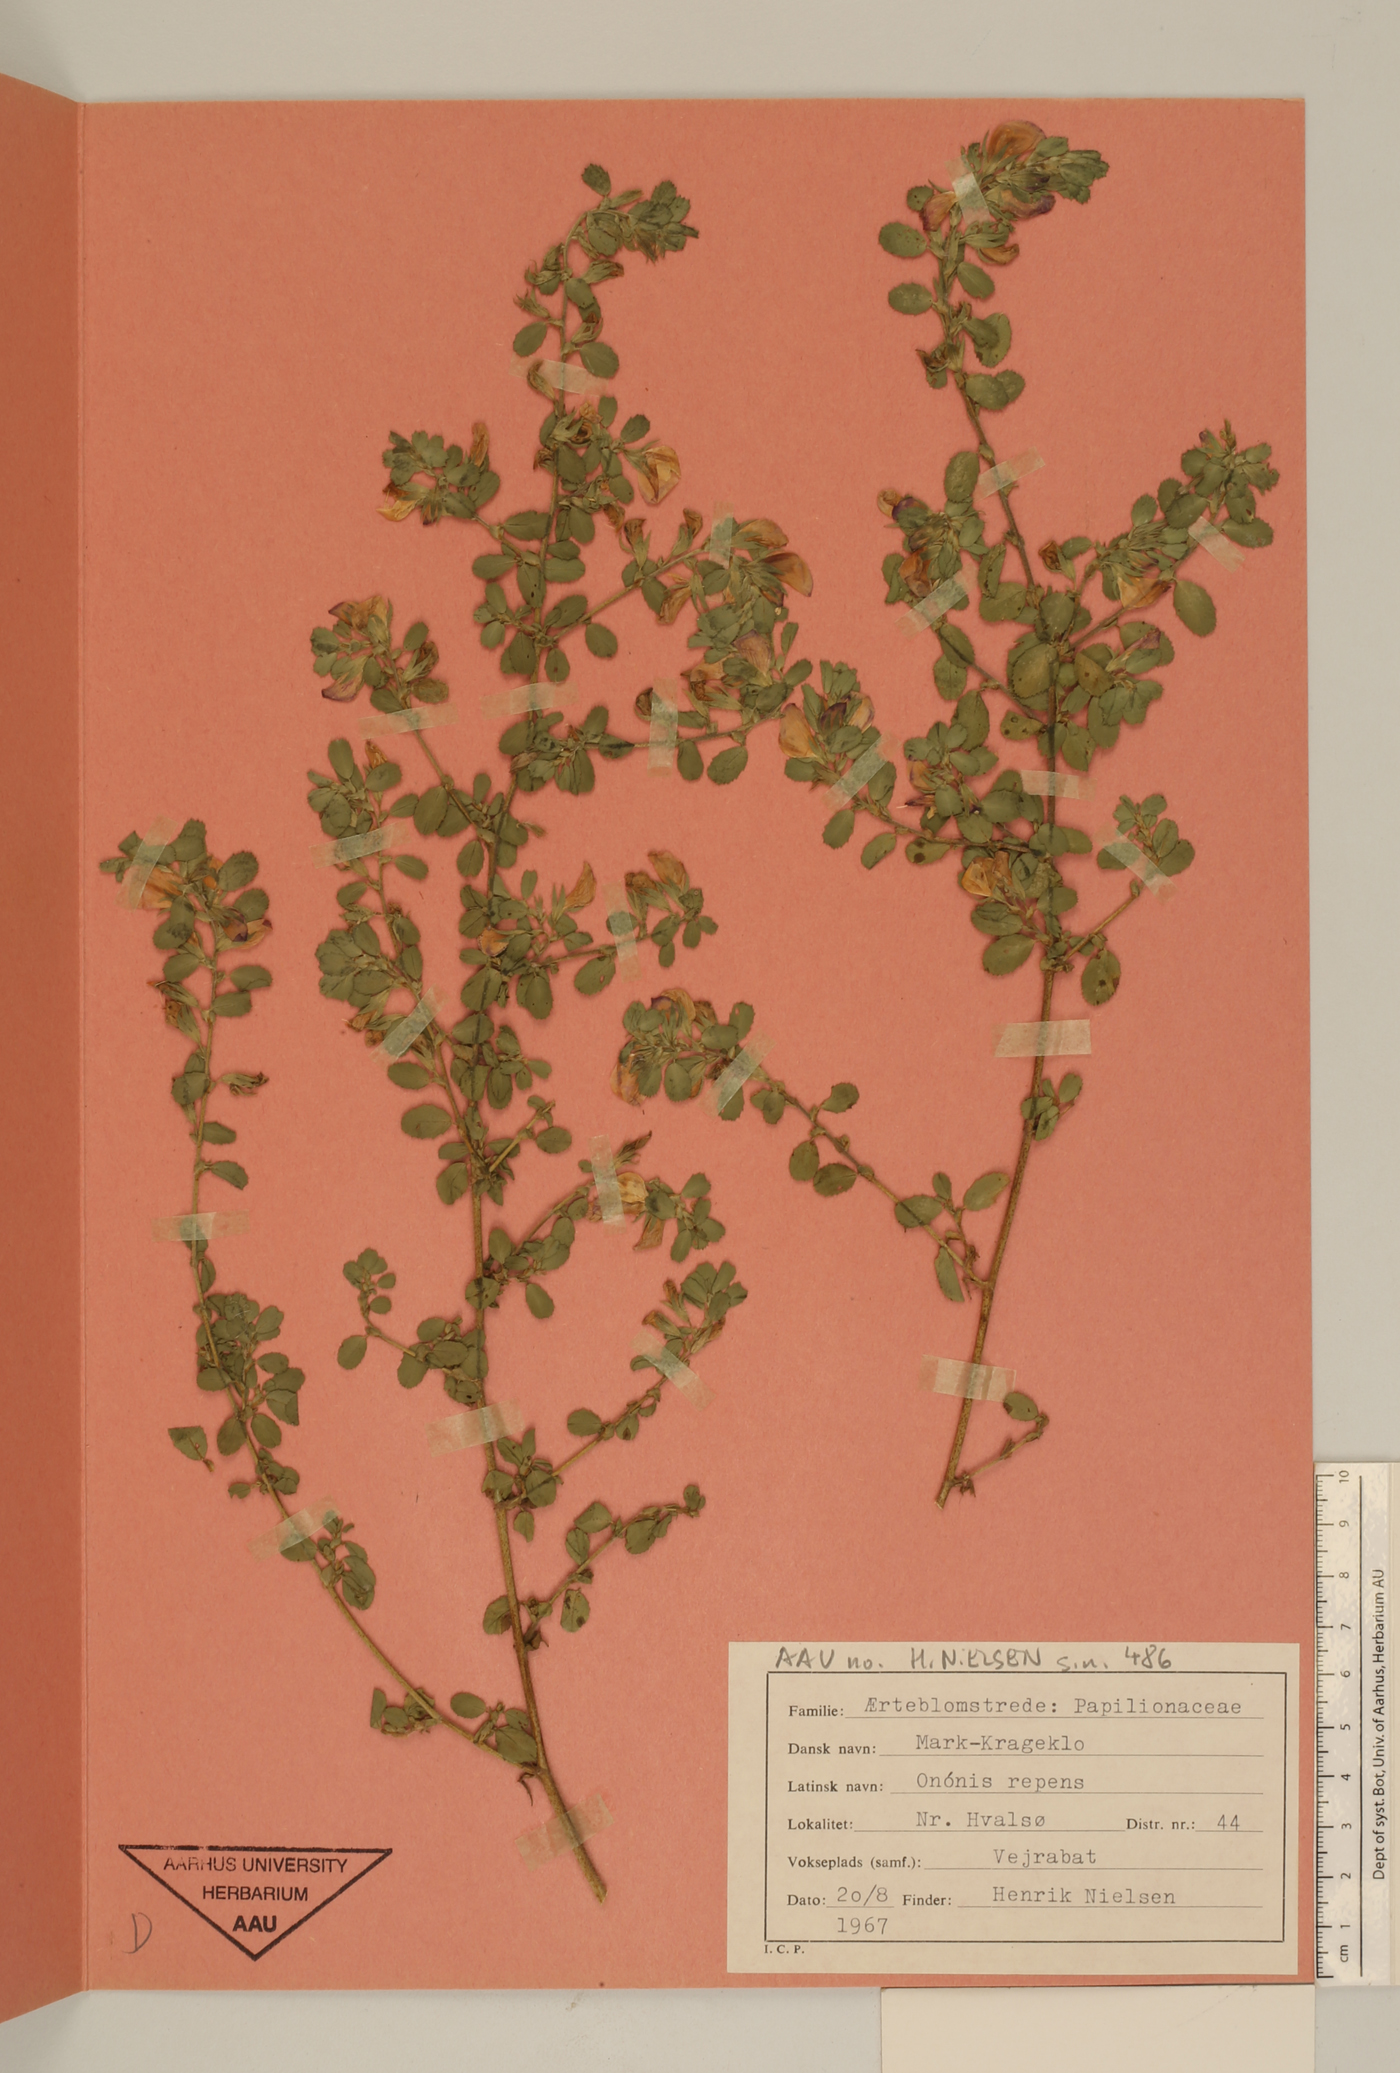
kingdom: Plantae
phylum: Tracheophyta
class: Magnoliopsida
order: Fabales
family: Fabaceae
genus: Ononis
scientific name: Ononis spinosa
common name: Spiny restharrow
